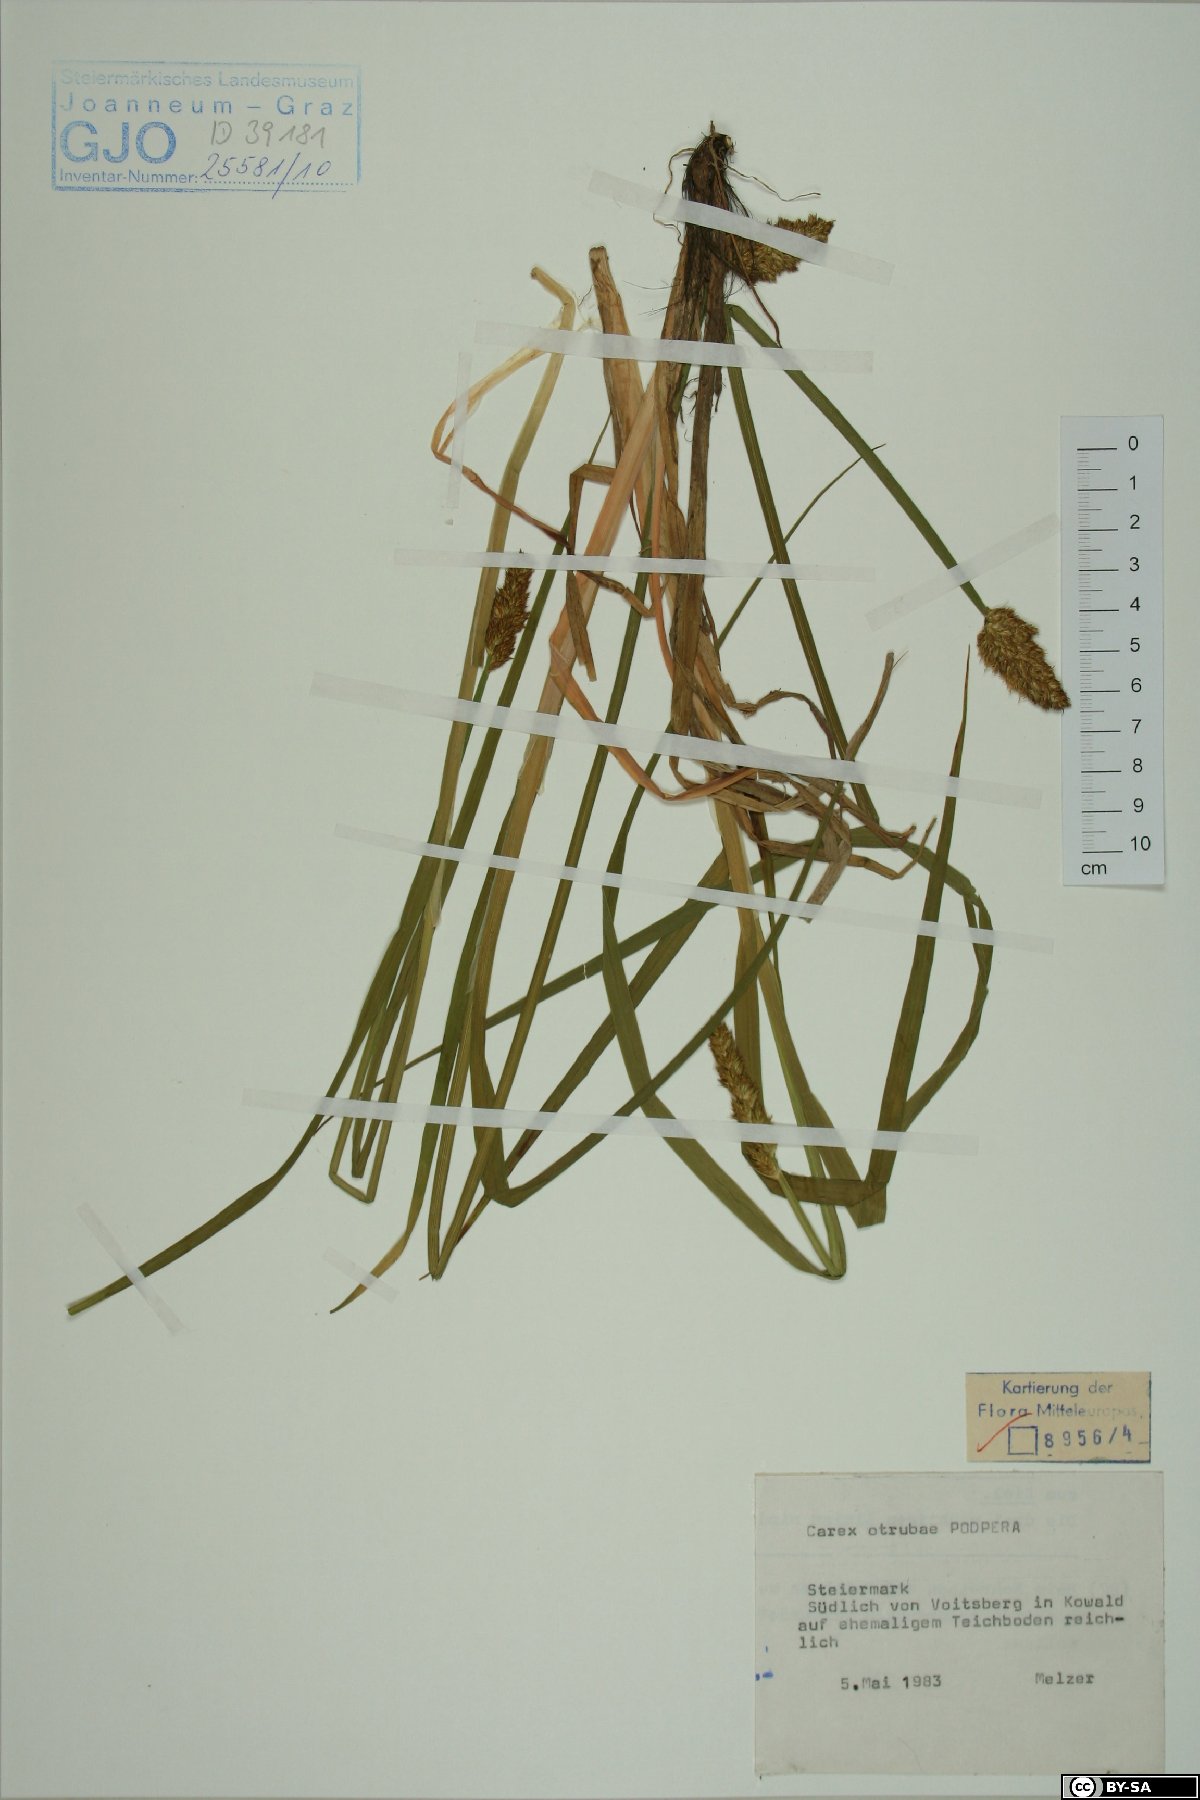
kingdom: Plantae
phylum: Tracheophyta
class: Liliopsida
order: Poales
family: Cyperaceae
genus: Carex
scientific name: Carex otrubae
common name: False fox-sedge
